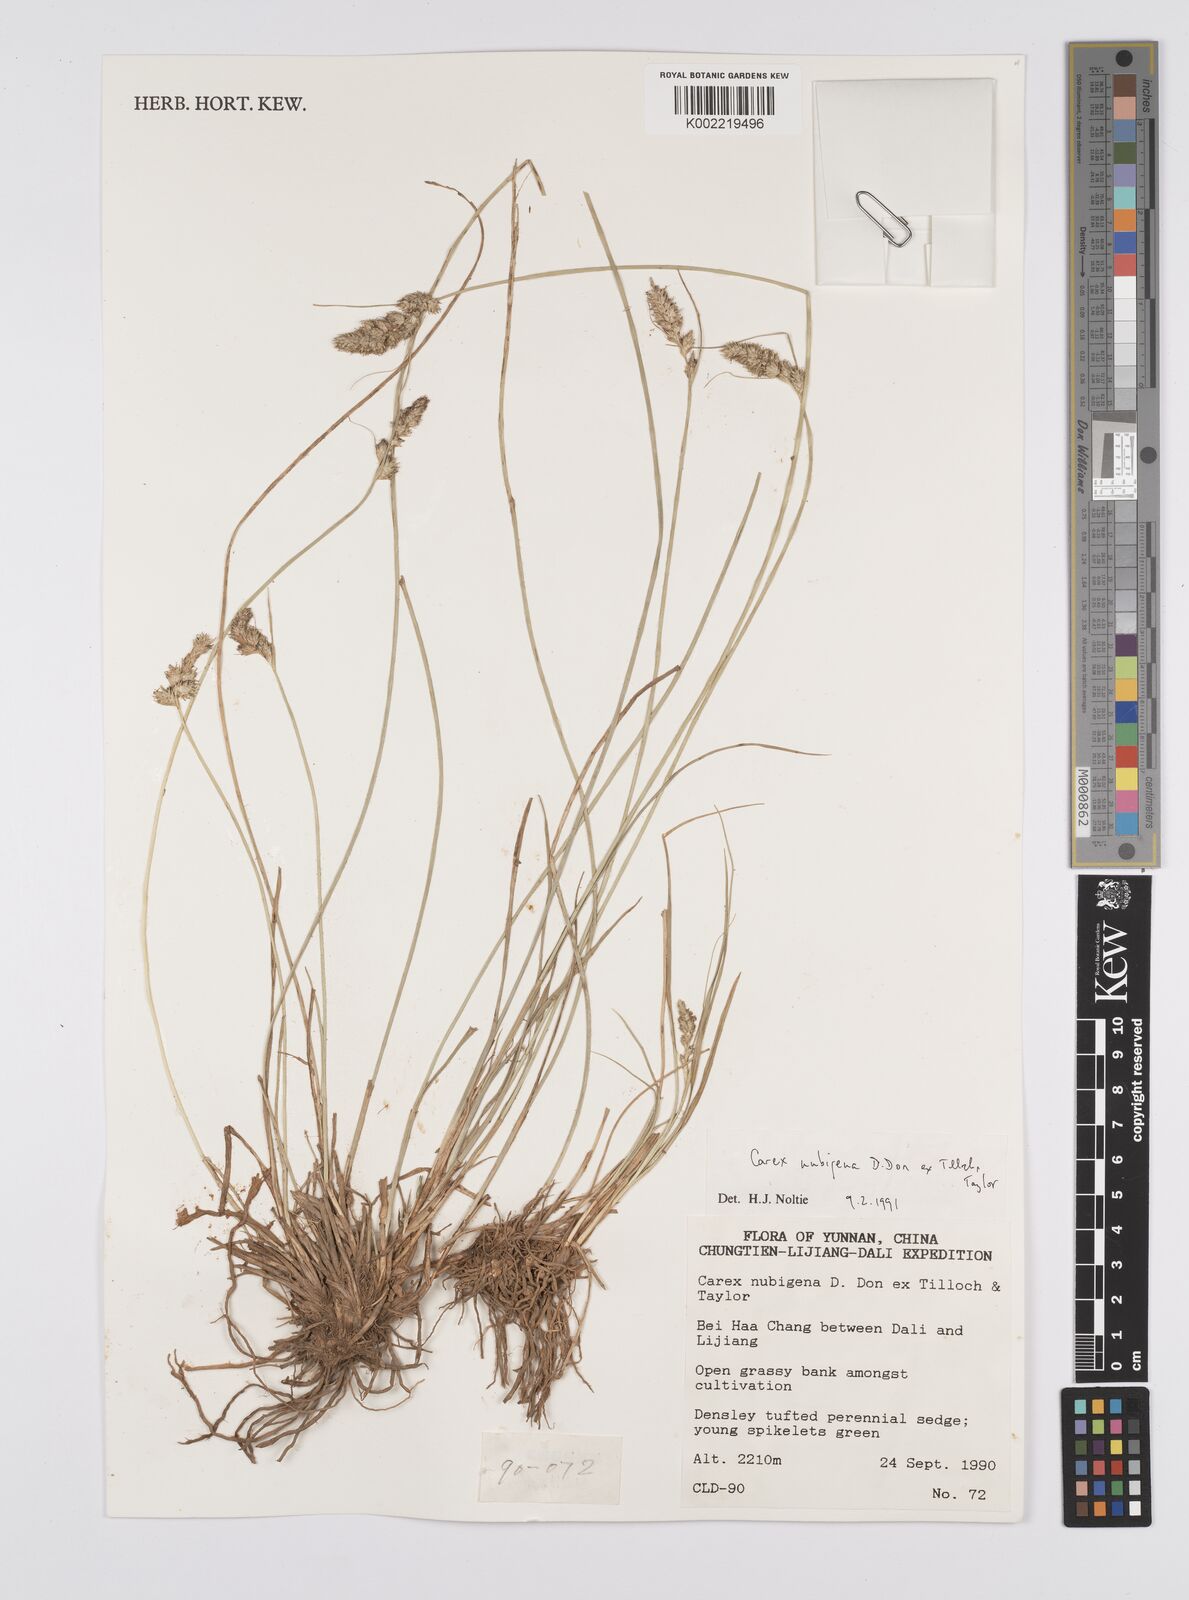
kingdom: Plantae
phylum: Tracheophyta
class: Liliopsida
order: Poales
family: Cyperaceae
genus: Carex
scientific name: Carex nubigena
